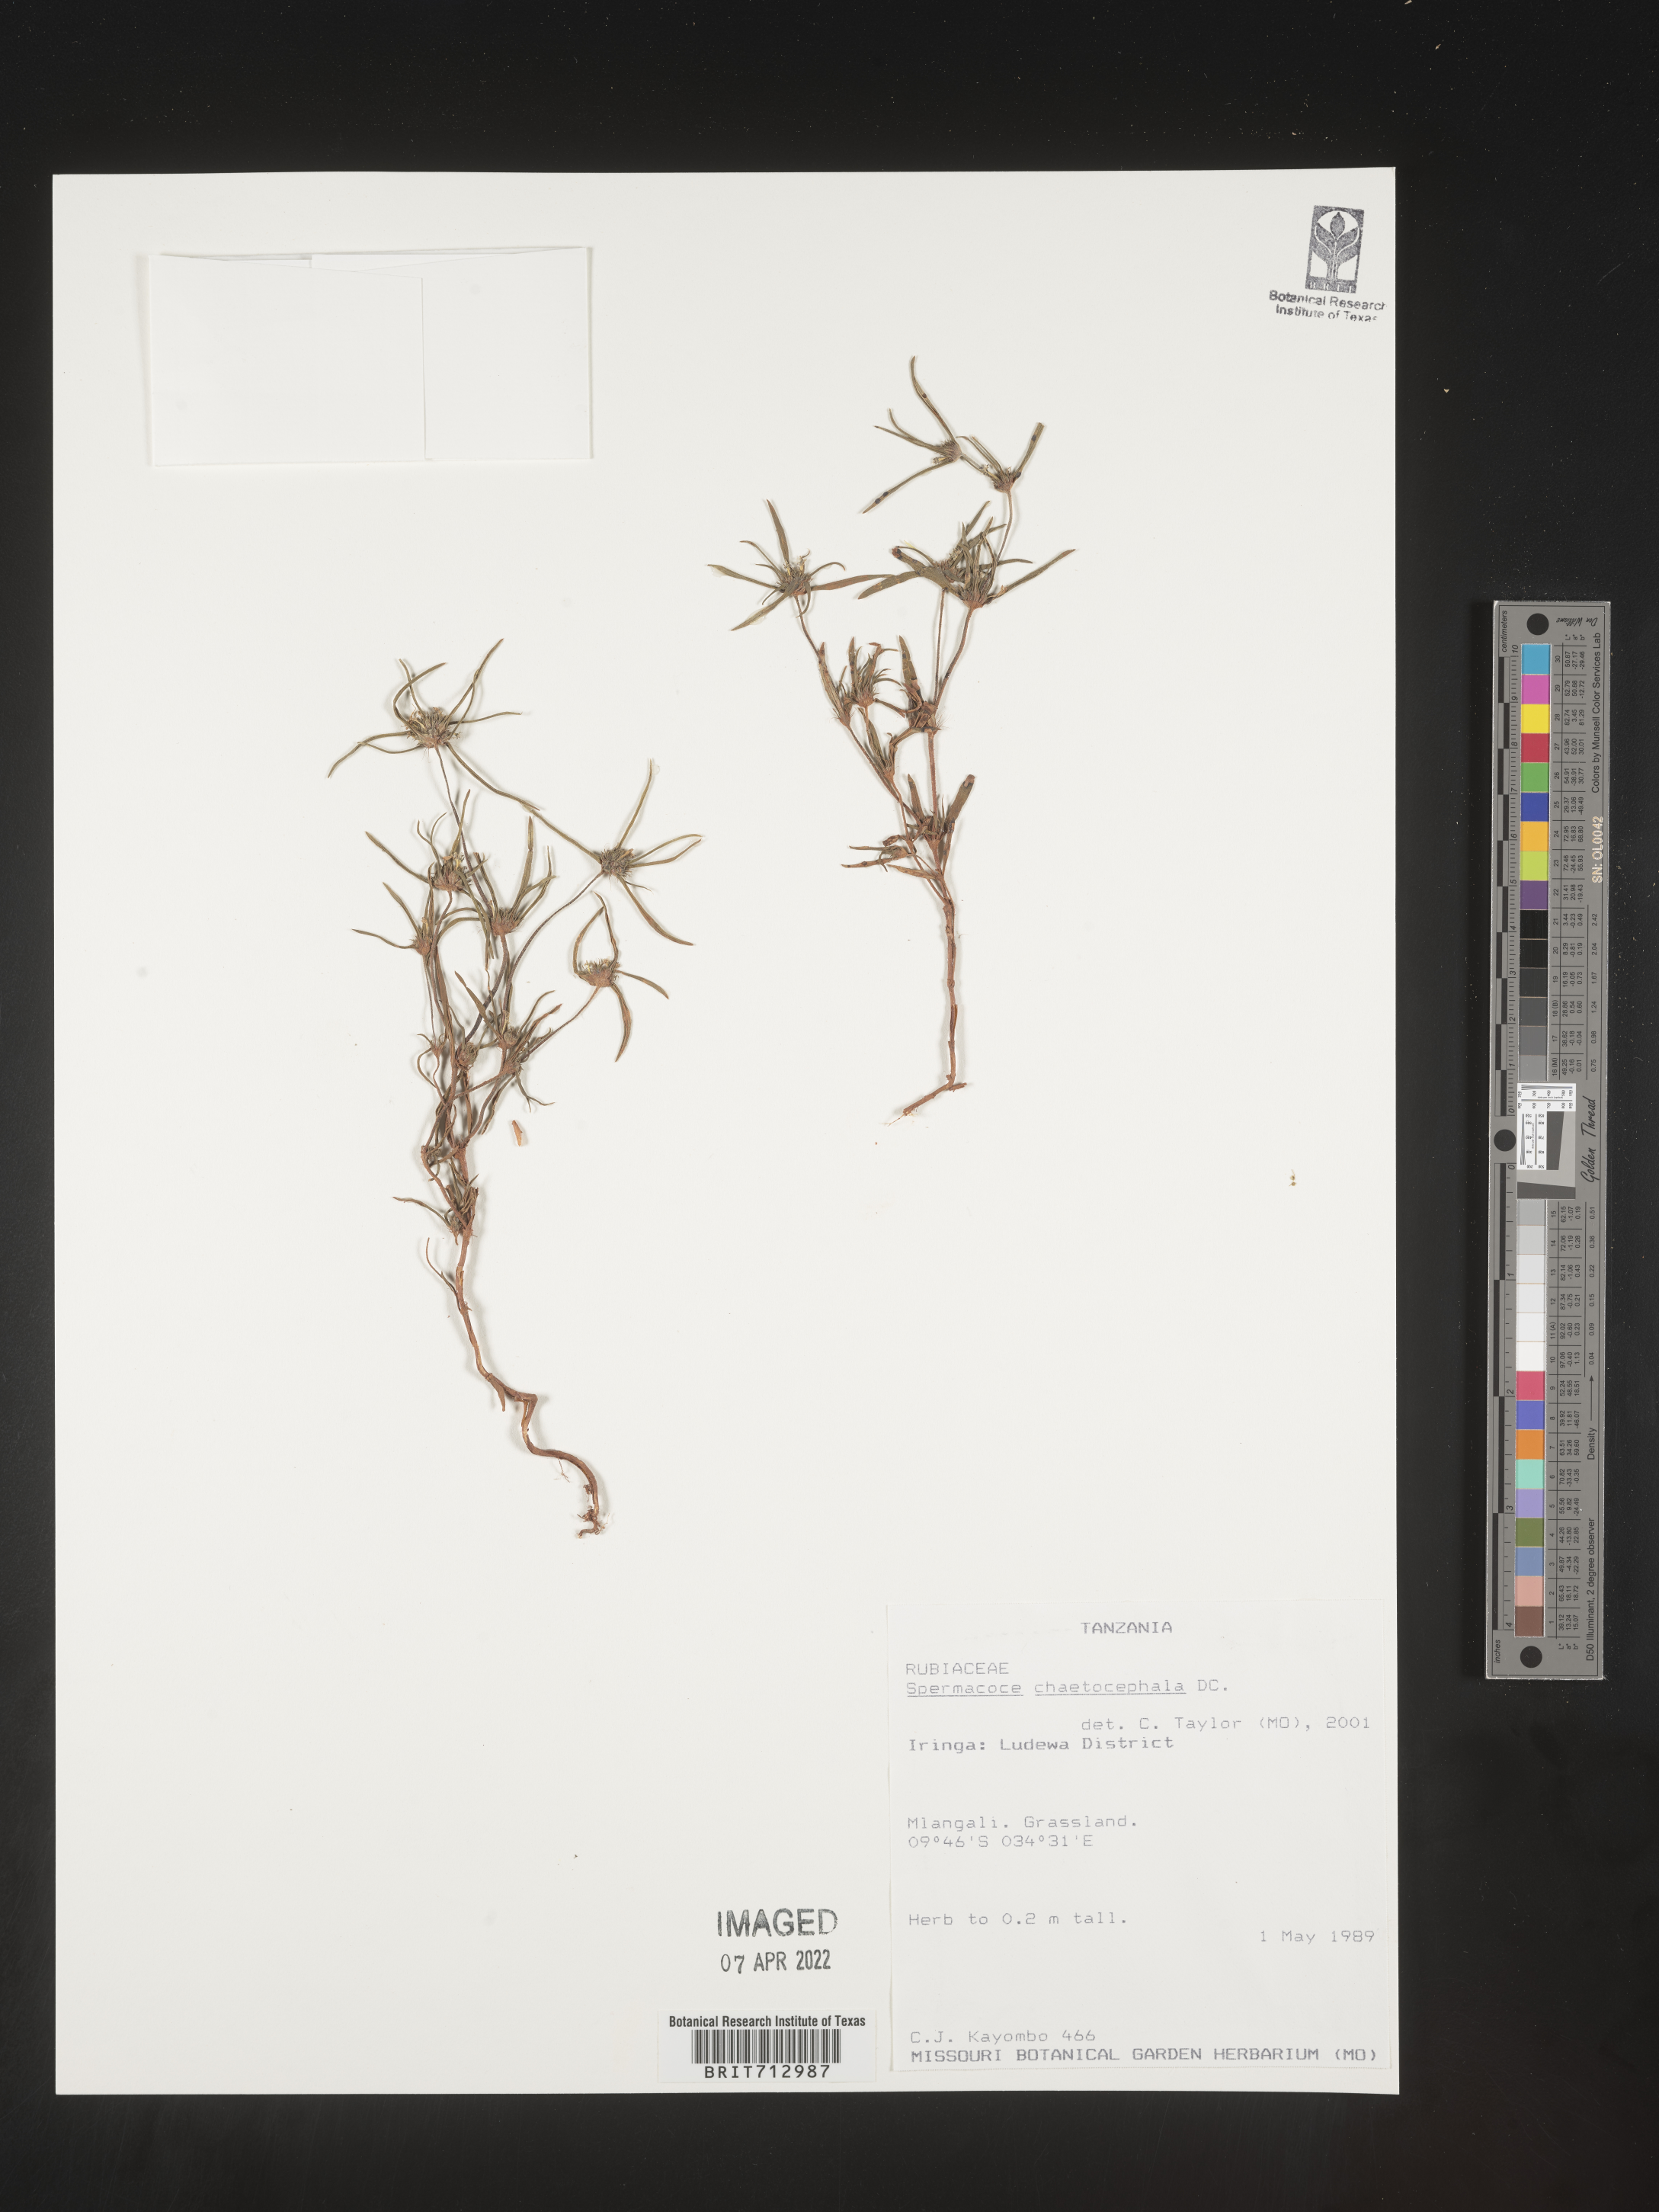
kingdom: Plantae
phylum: Tracheophyta
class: Magnoliopsida
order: Gentianales
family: Rubiaceae
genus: Spermacoce
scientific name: Spermacoce
